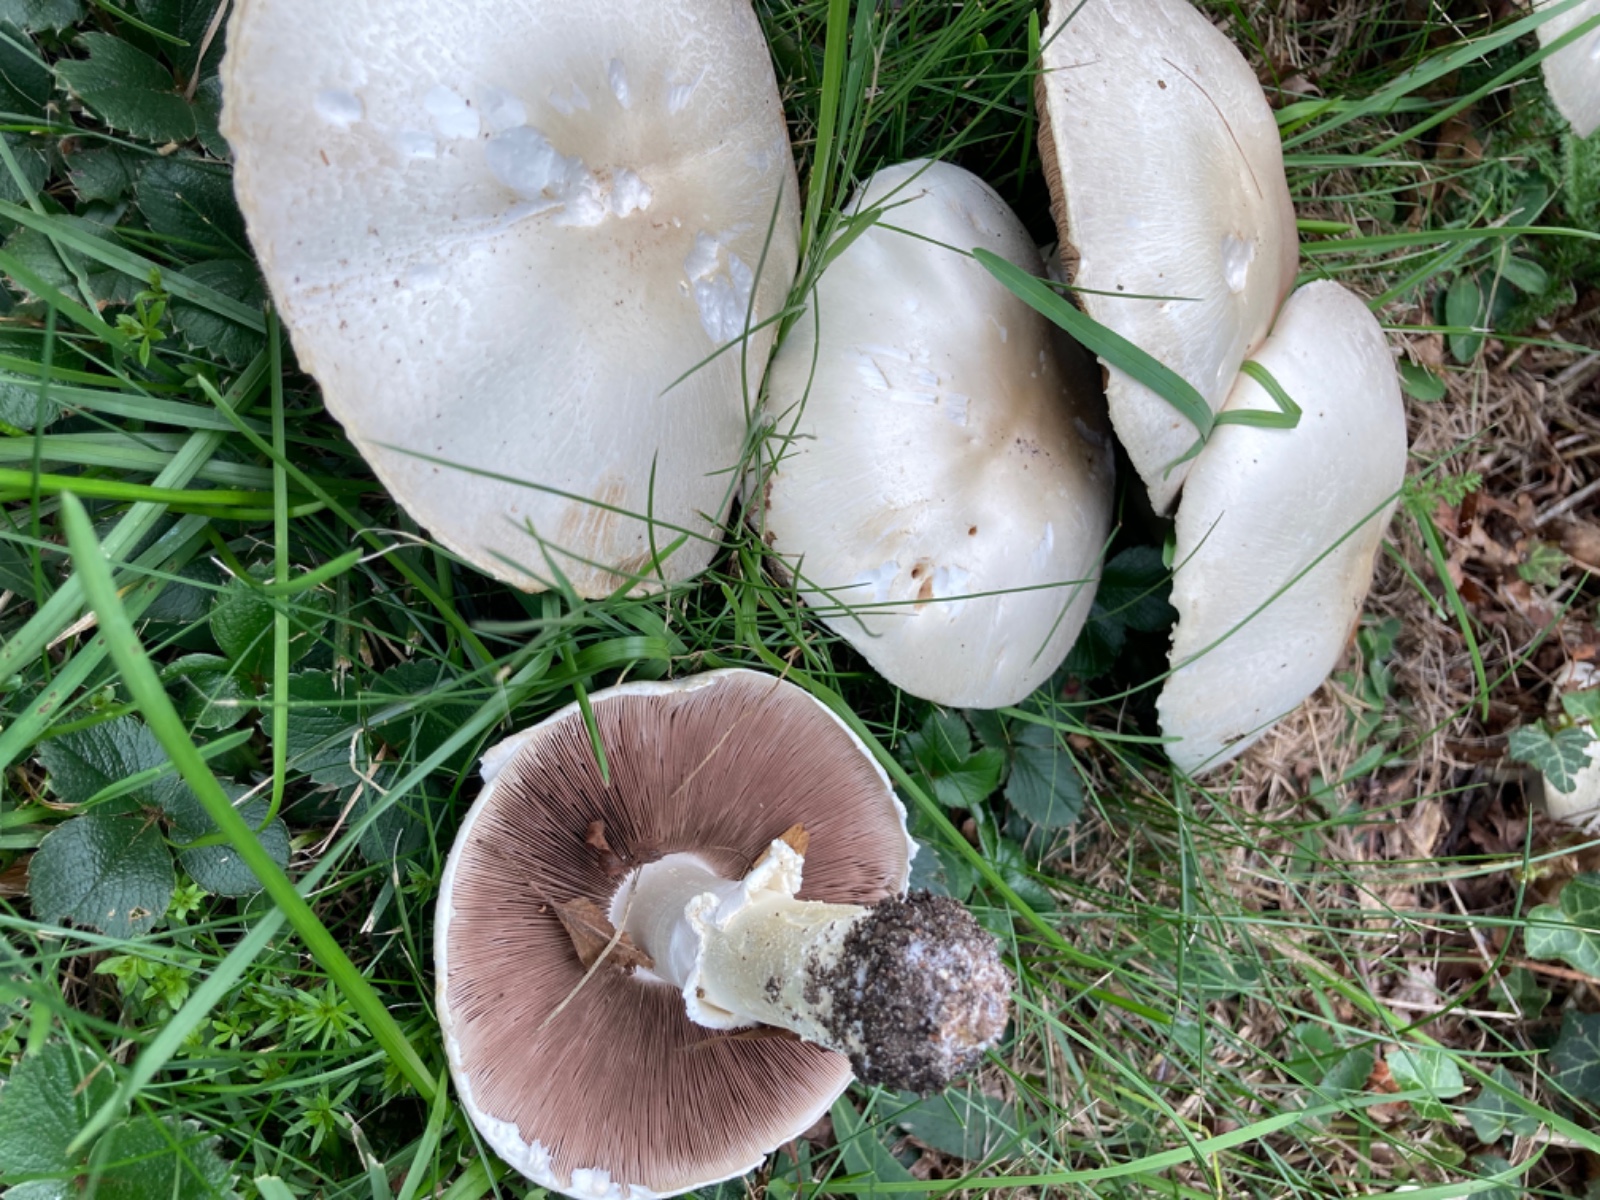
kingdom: Fungi
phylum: Basidiomycota
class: Agaricomycetes
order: Agaricales
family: Agaricaceae
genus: Agaricus
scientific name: Agaricus
